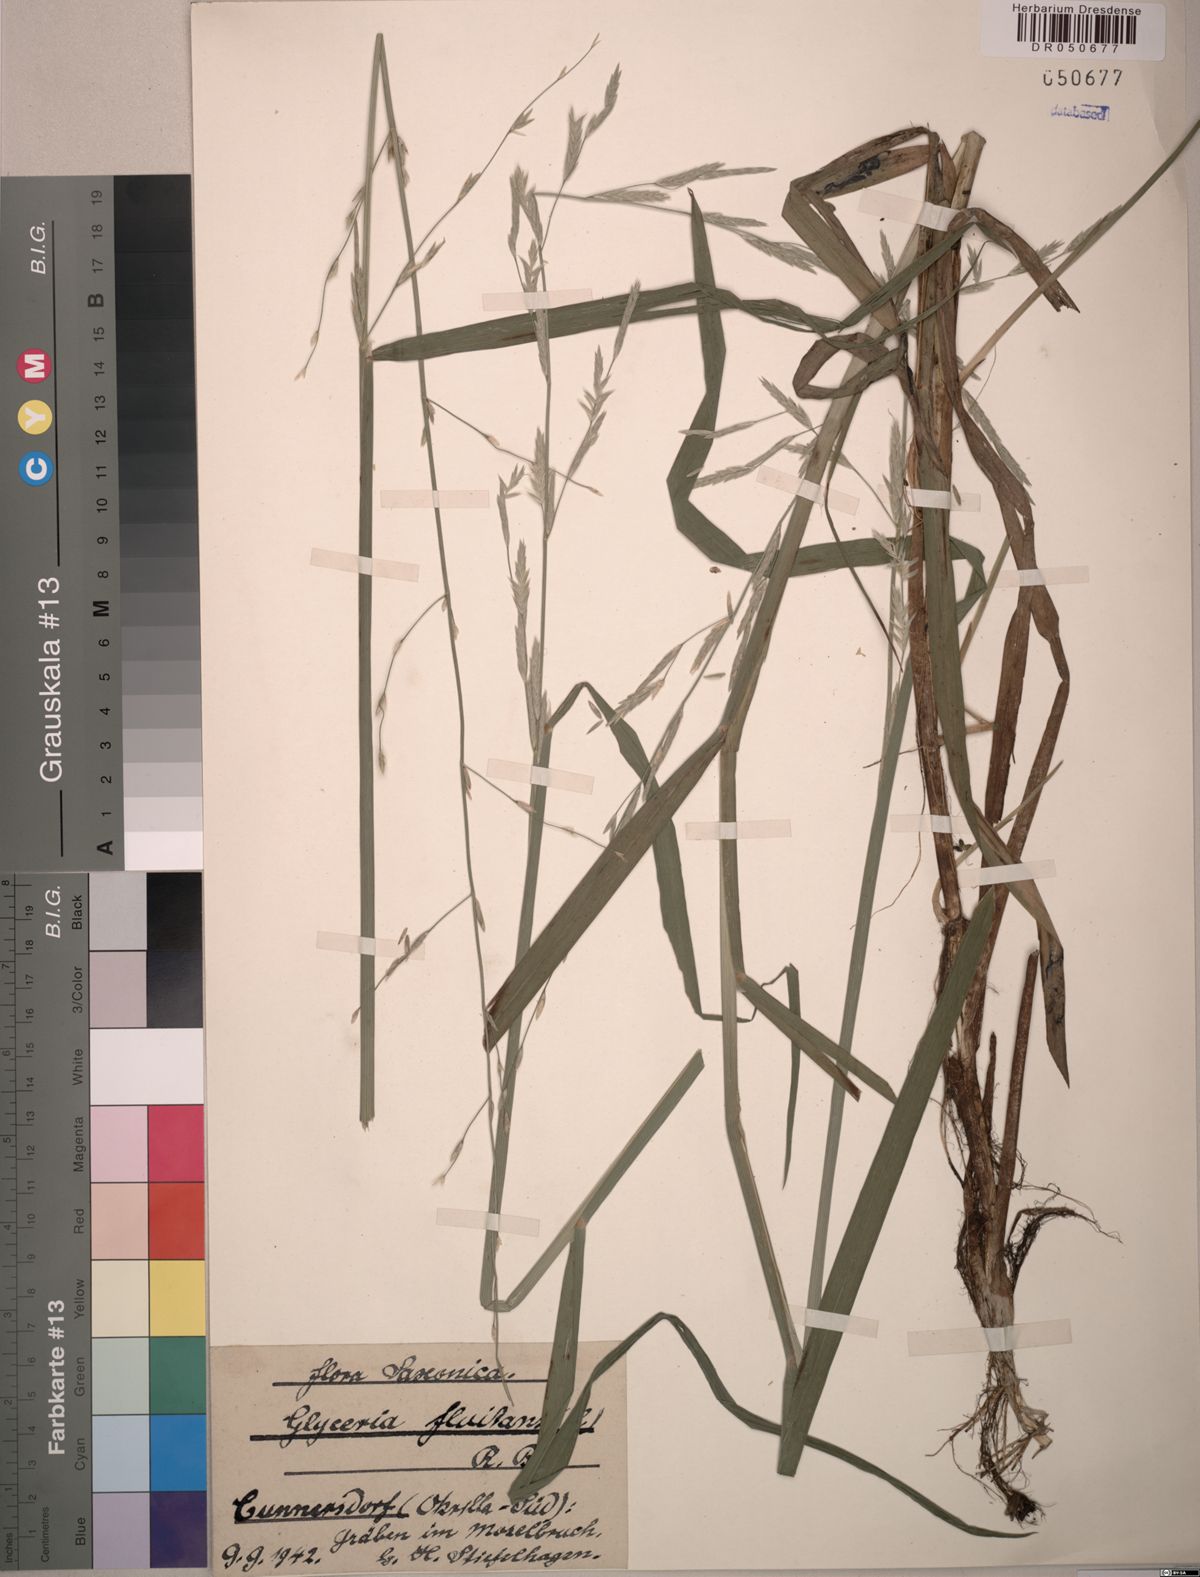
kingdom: Plantae
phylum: Tracheophyta
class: Liliopsida
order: Poales
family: Poaceae
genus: Glyceria
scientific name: Glyceria fluitans
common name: Floating sweet-grass
